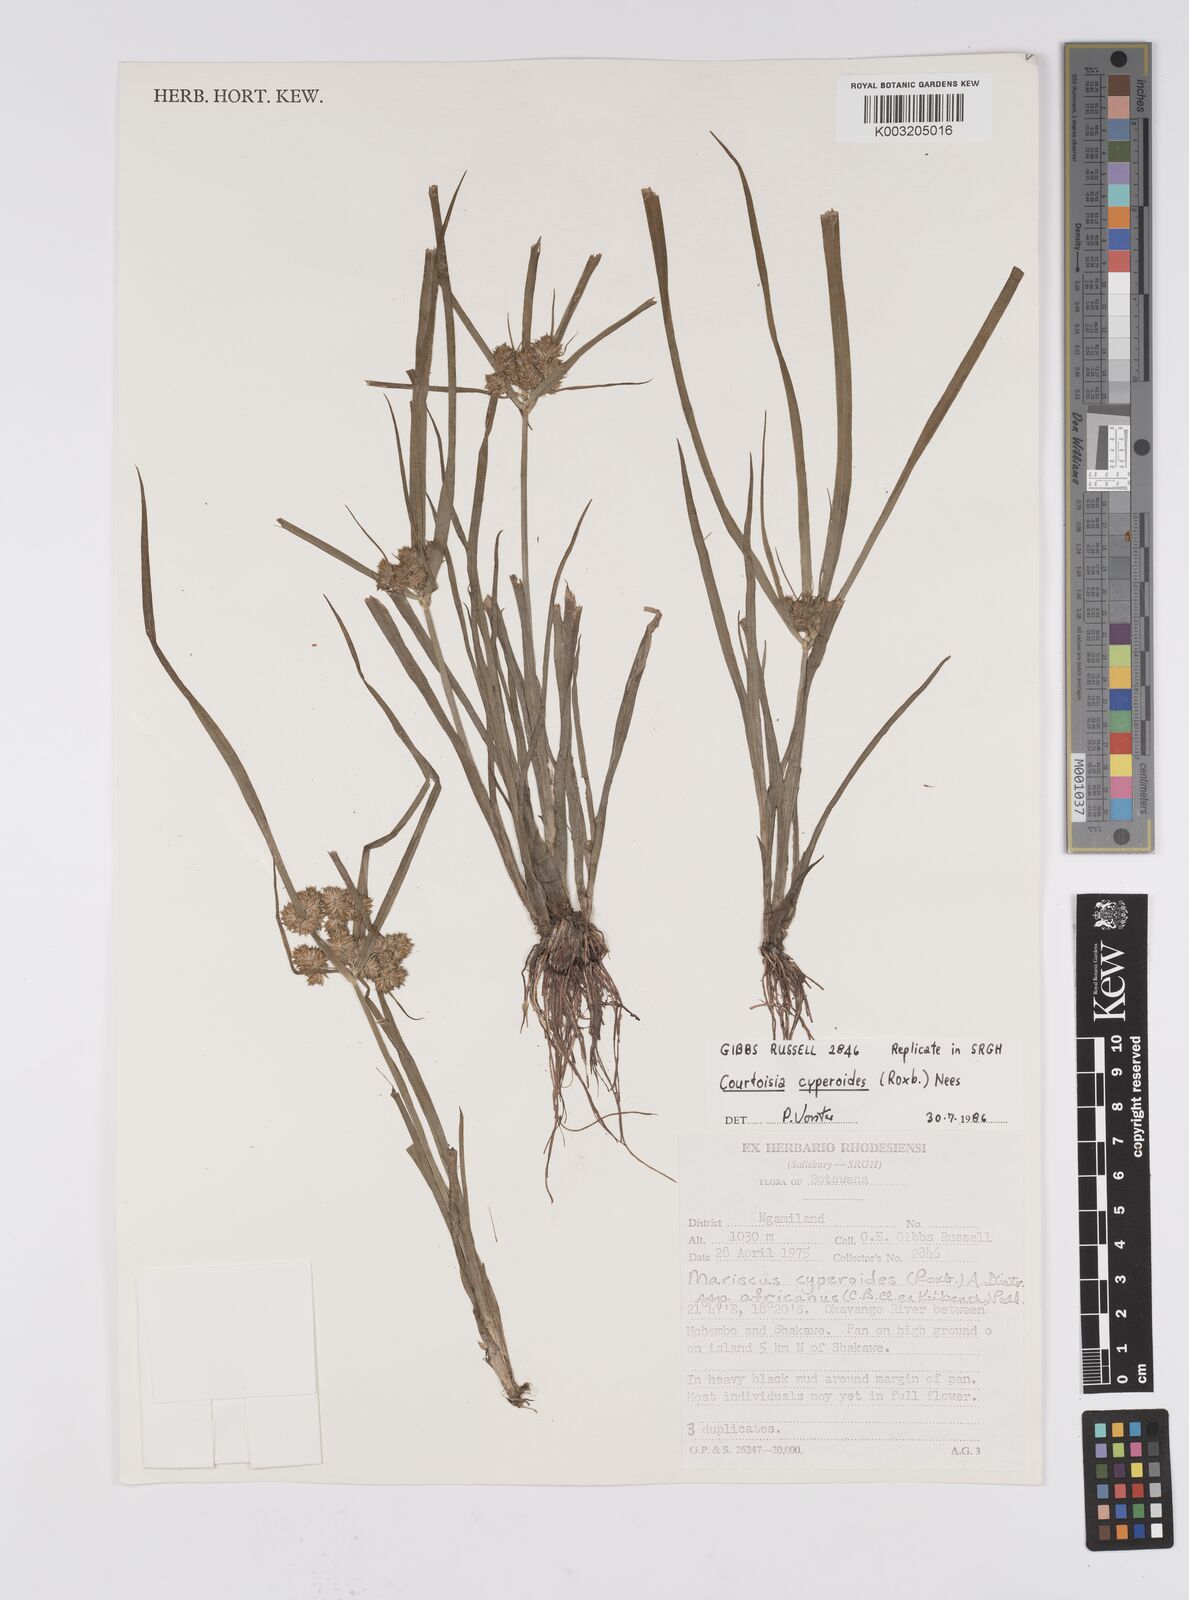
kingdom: Plantae
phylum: Tracheophyta
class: Liliopsida
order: Poales
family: Cyperaceae
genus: Cyperus
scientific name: Cyperus cyperoides
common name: Pacific island flat sedge
